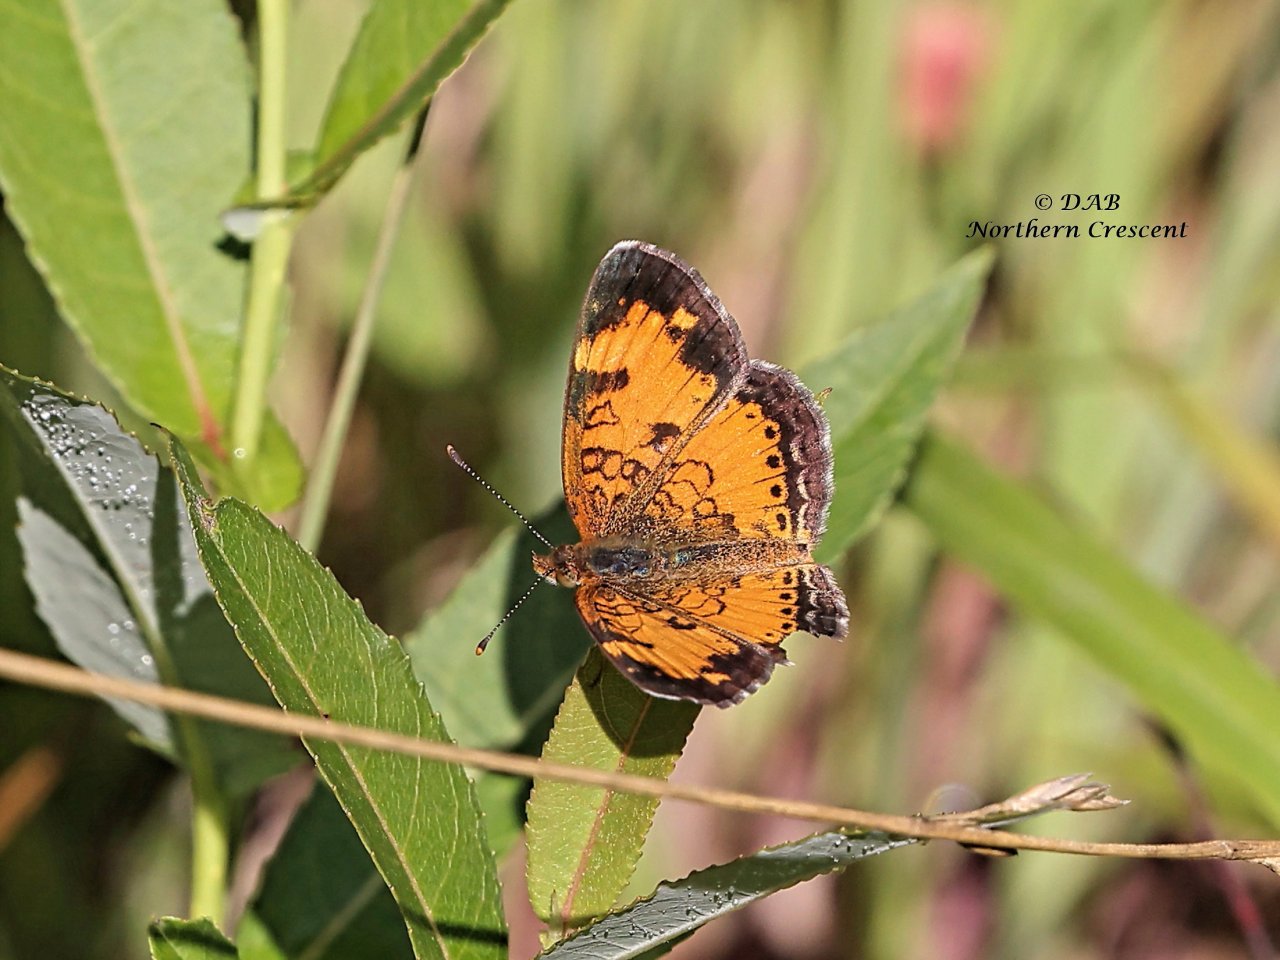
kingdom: Animalia
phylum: Arthropoda
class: Insecta
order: Lepidoptera
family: Nymphalidae
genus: Phyciodes
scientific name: Phyciodes tharos
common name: Northern Crescent
